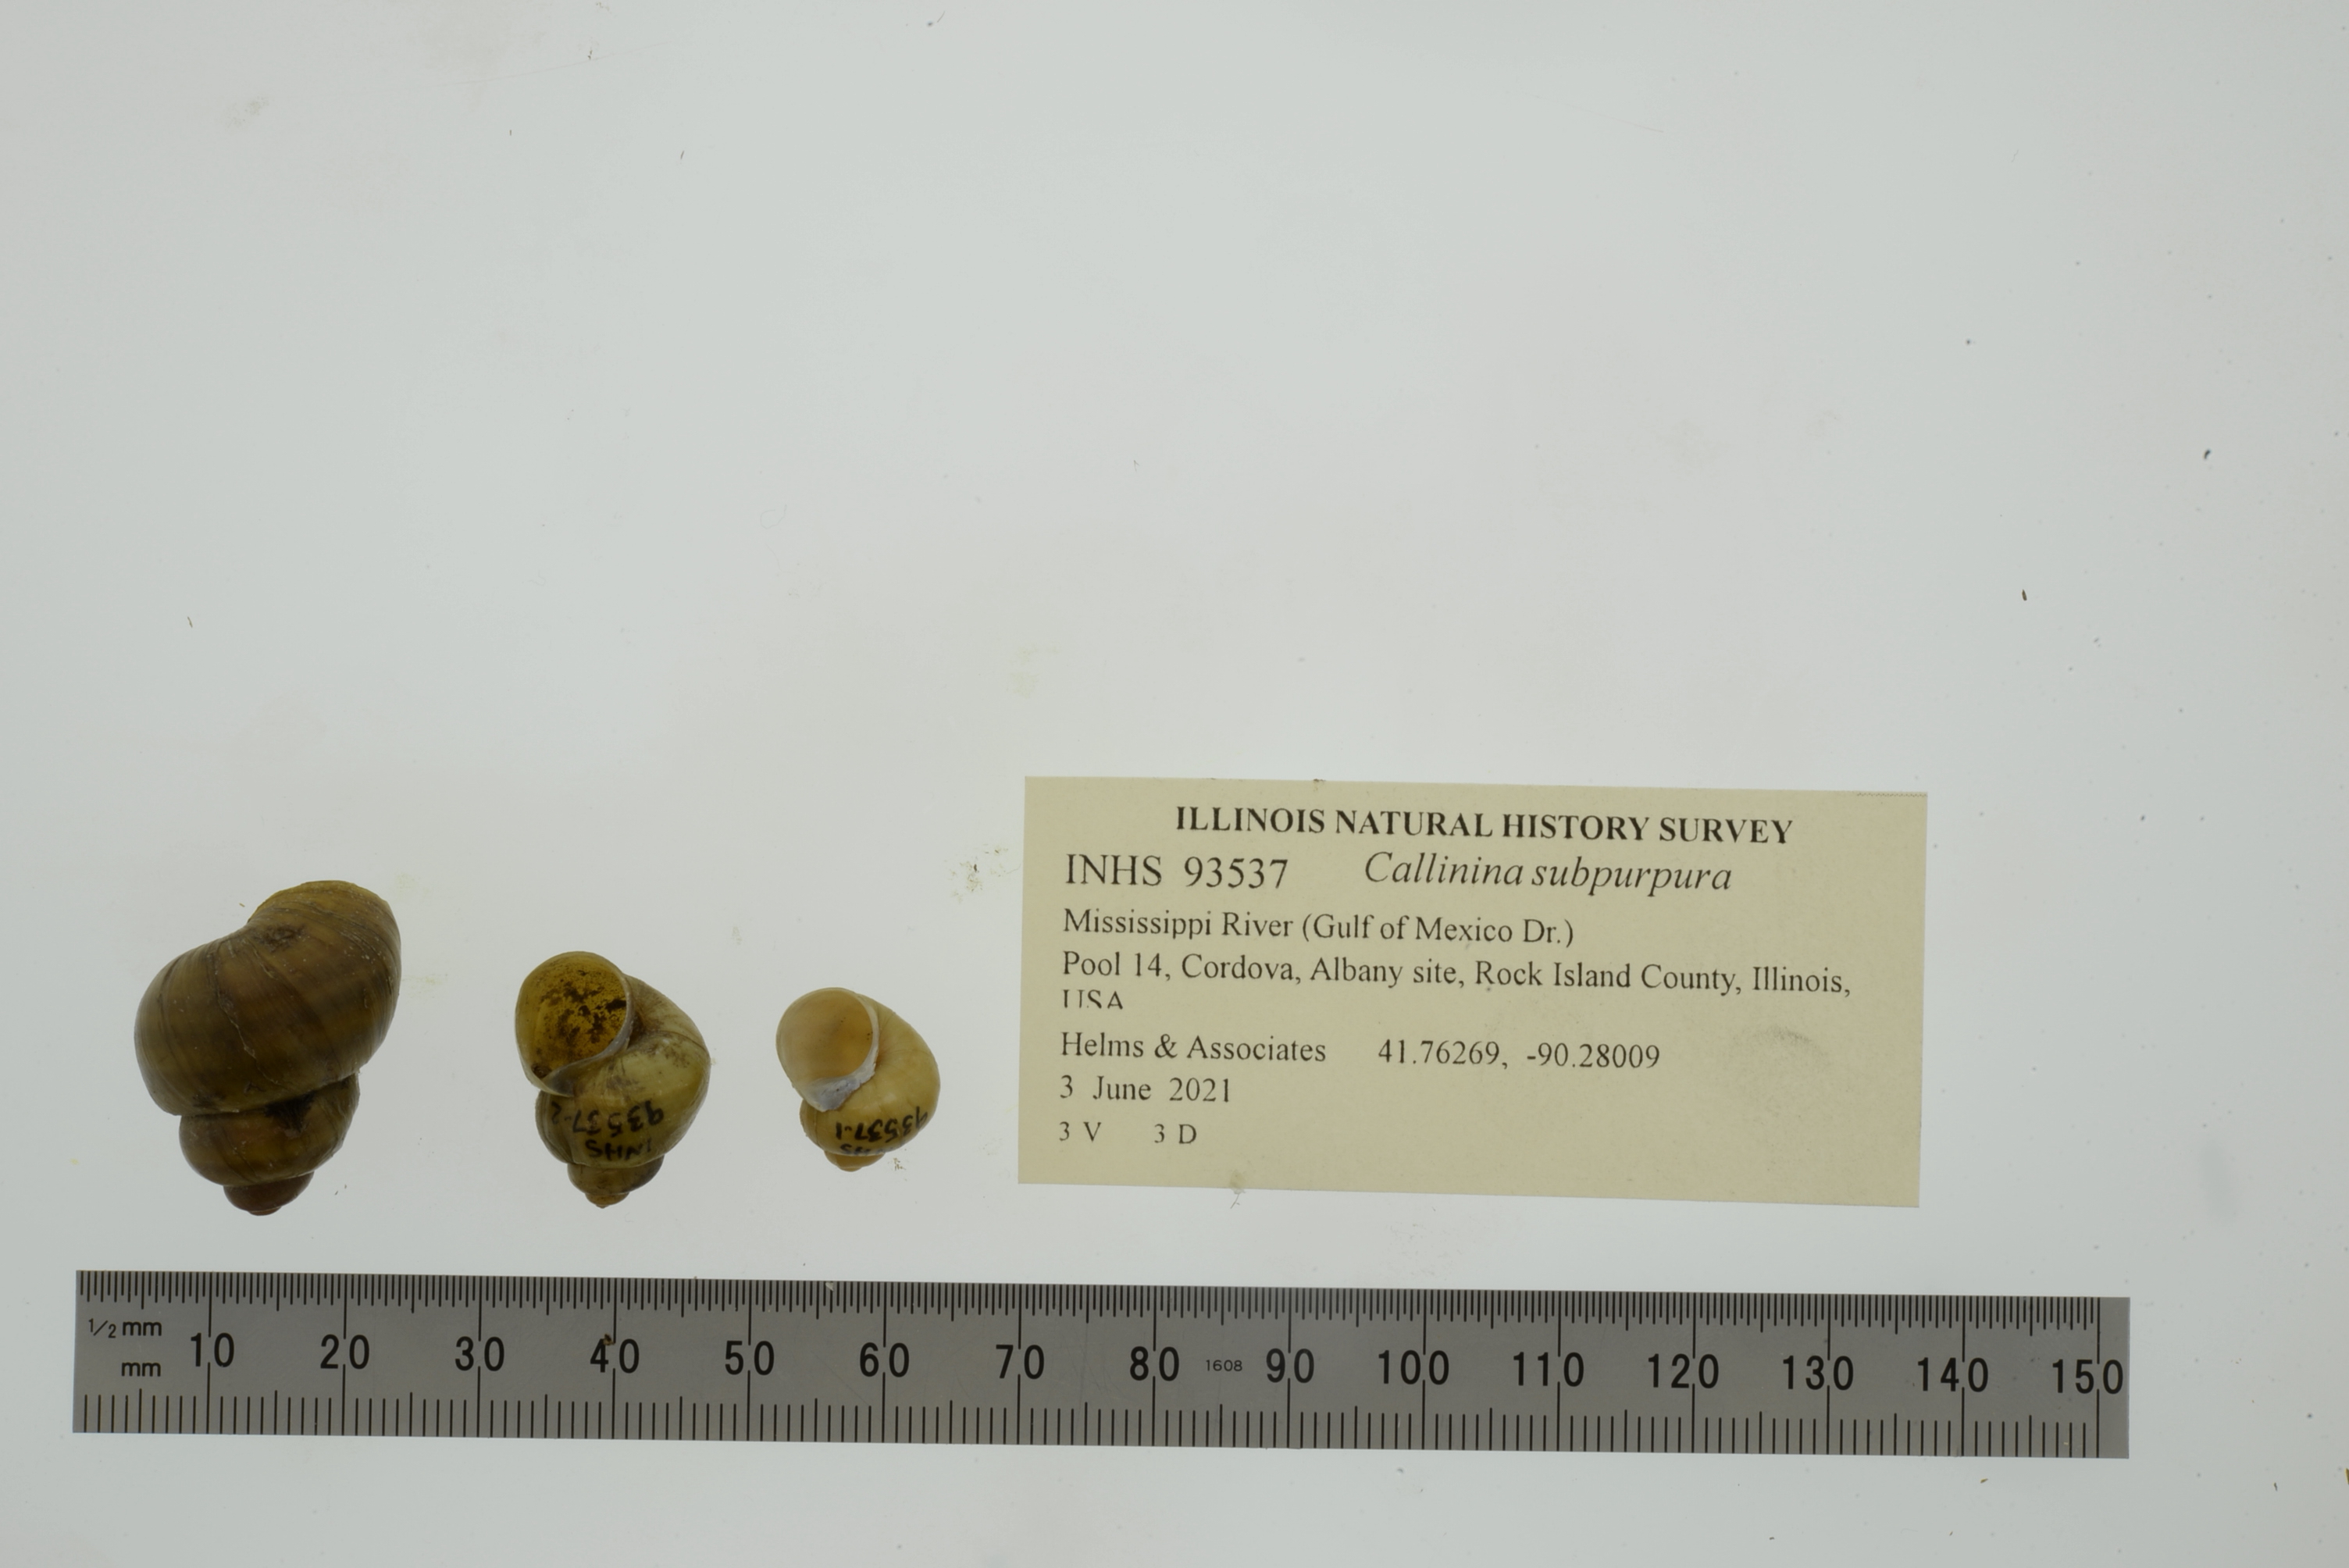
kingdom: Animalia
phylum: Mollusca
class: Gastropoda
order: Architaenioglossa
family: Viviparidae
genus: Callinina
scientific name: Callinina subpurpurea
